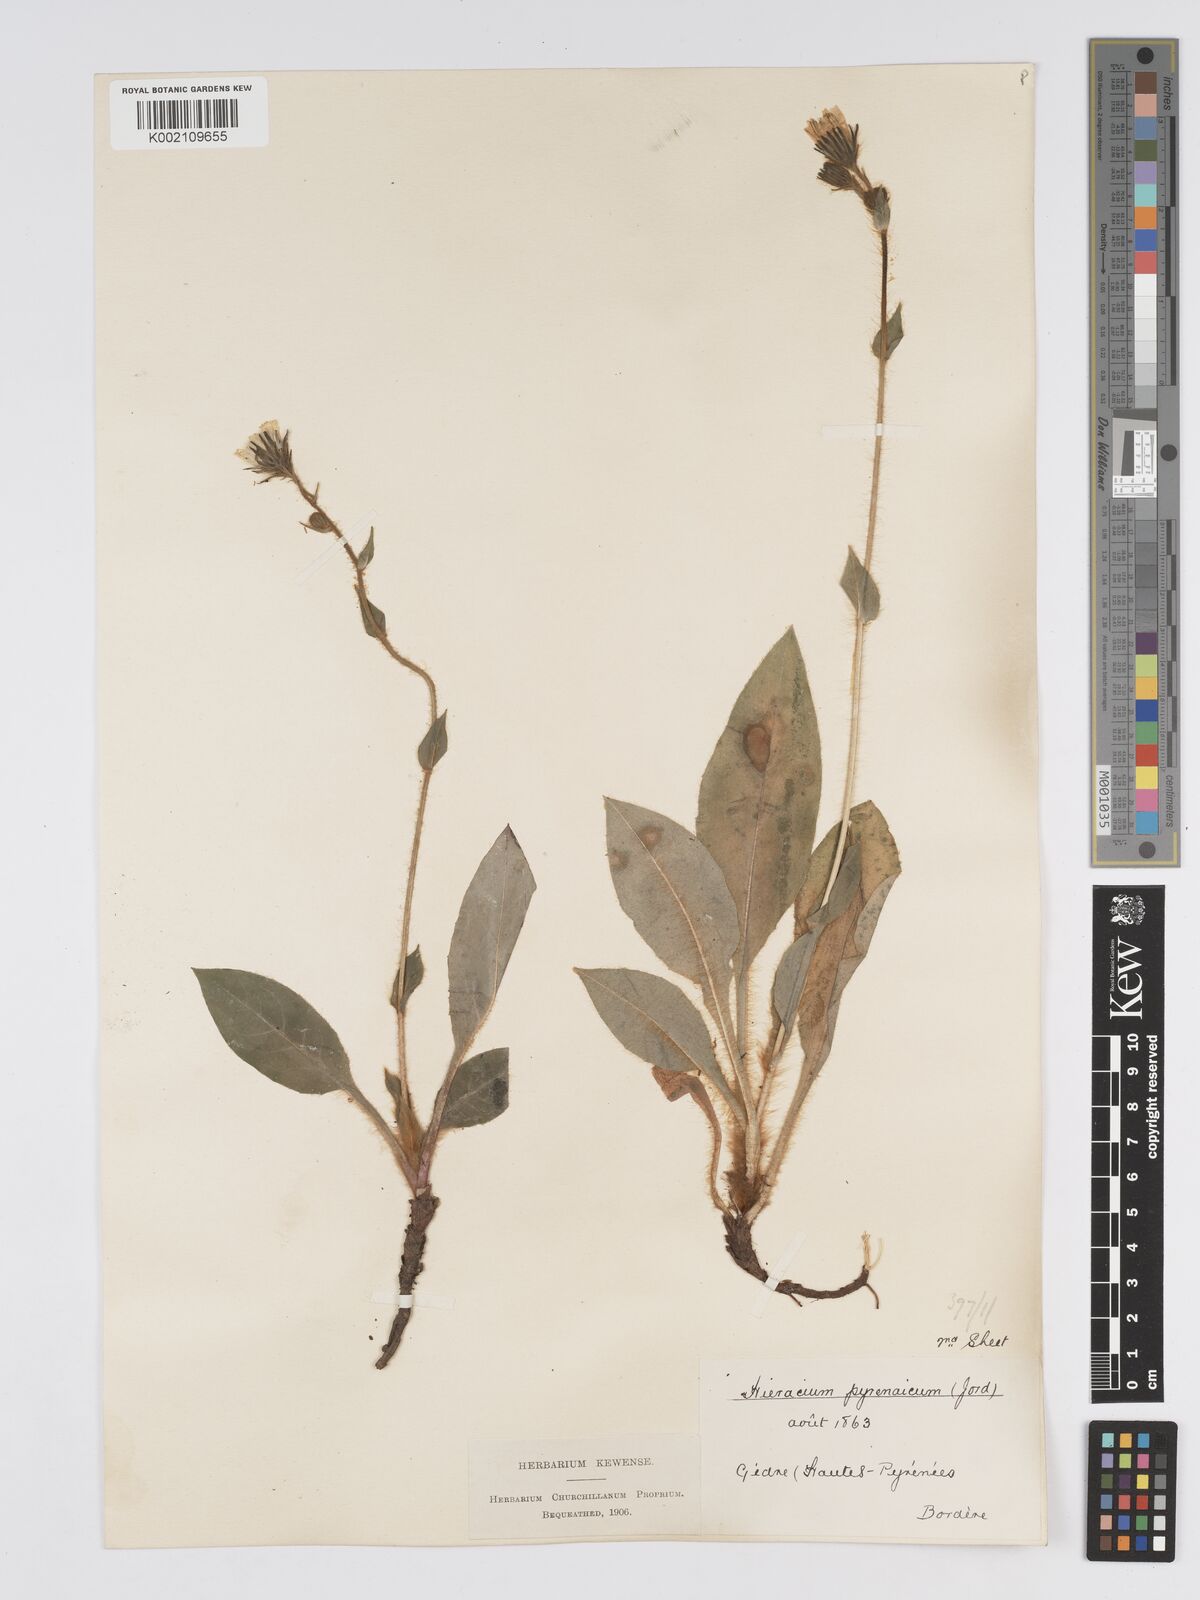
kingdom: Plantae
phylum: Tracheophyta
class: Magnoliopsida
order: Asterales
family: Asteraceae
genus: Hieracium
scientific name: Hieracium nobile
